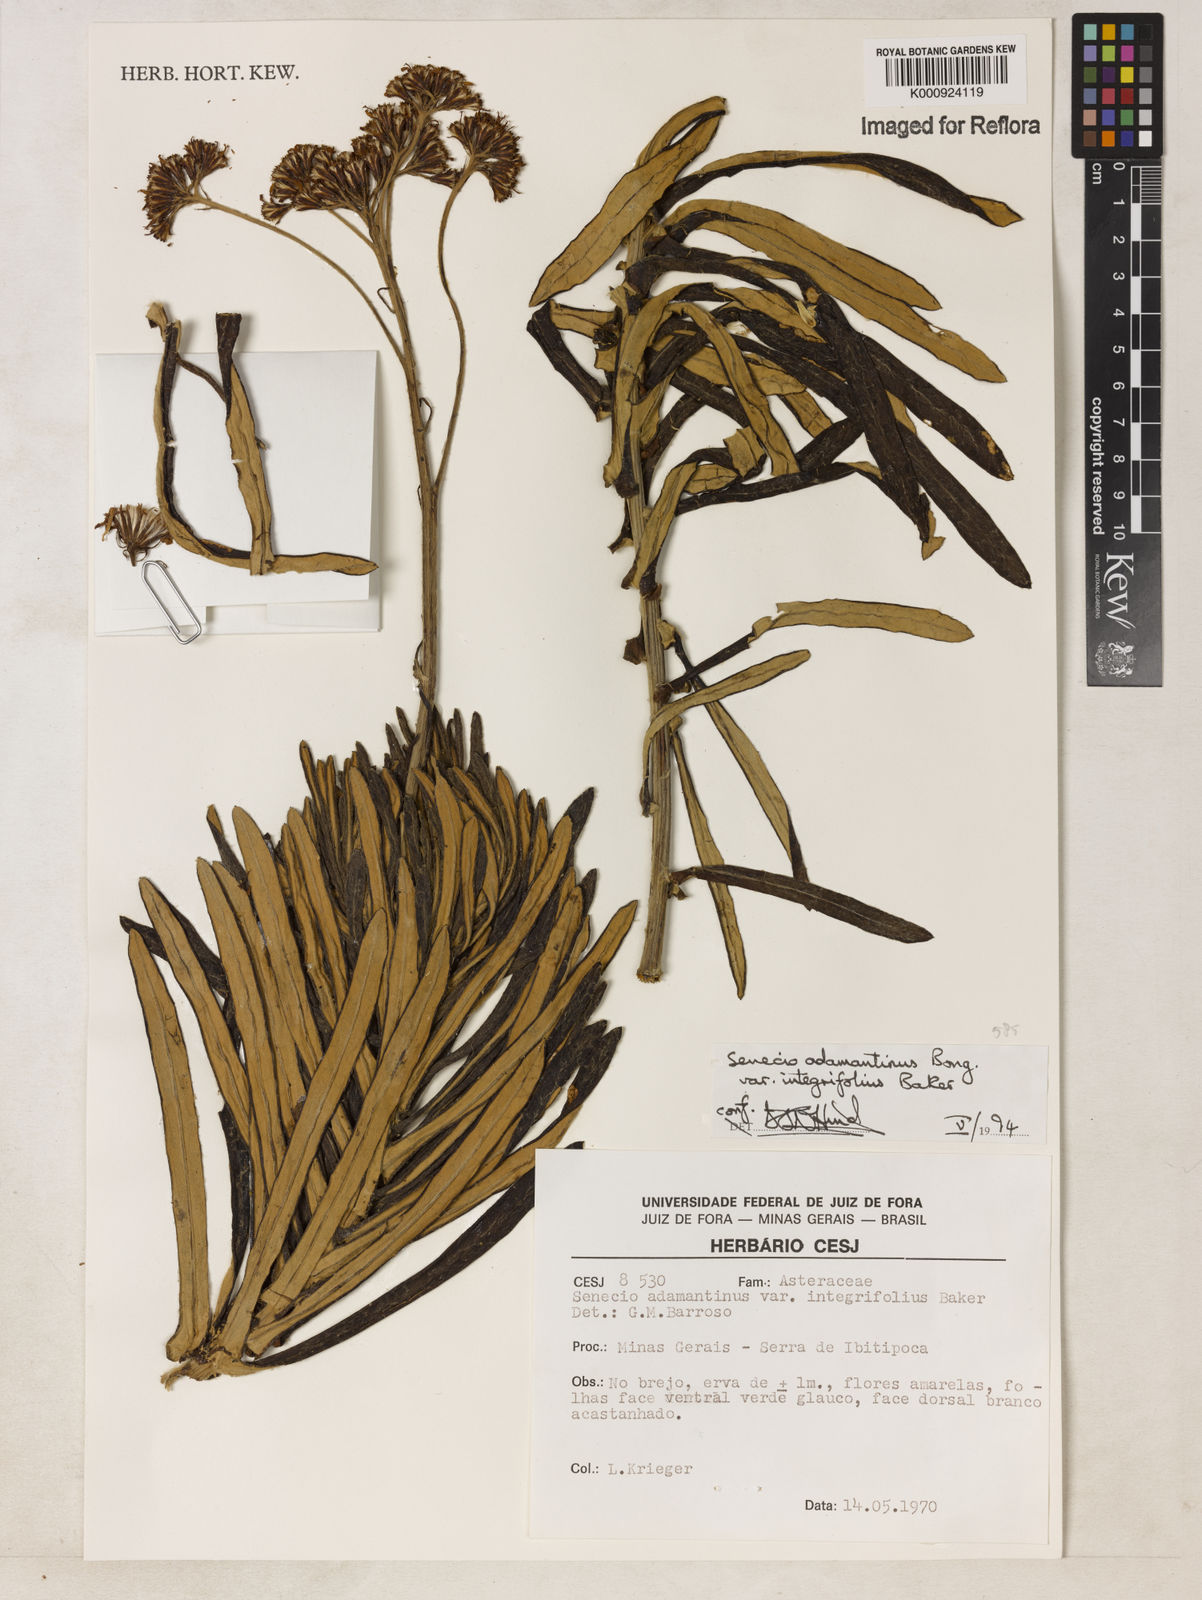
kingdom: Plantae
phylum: Tracheophyta
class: Magnoliopsida
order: Asterales
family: Asteraceae
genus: Senecio
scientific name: Senecio
